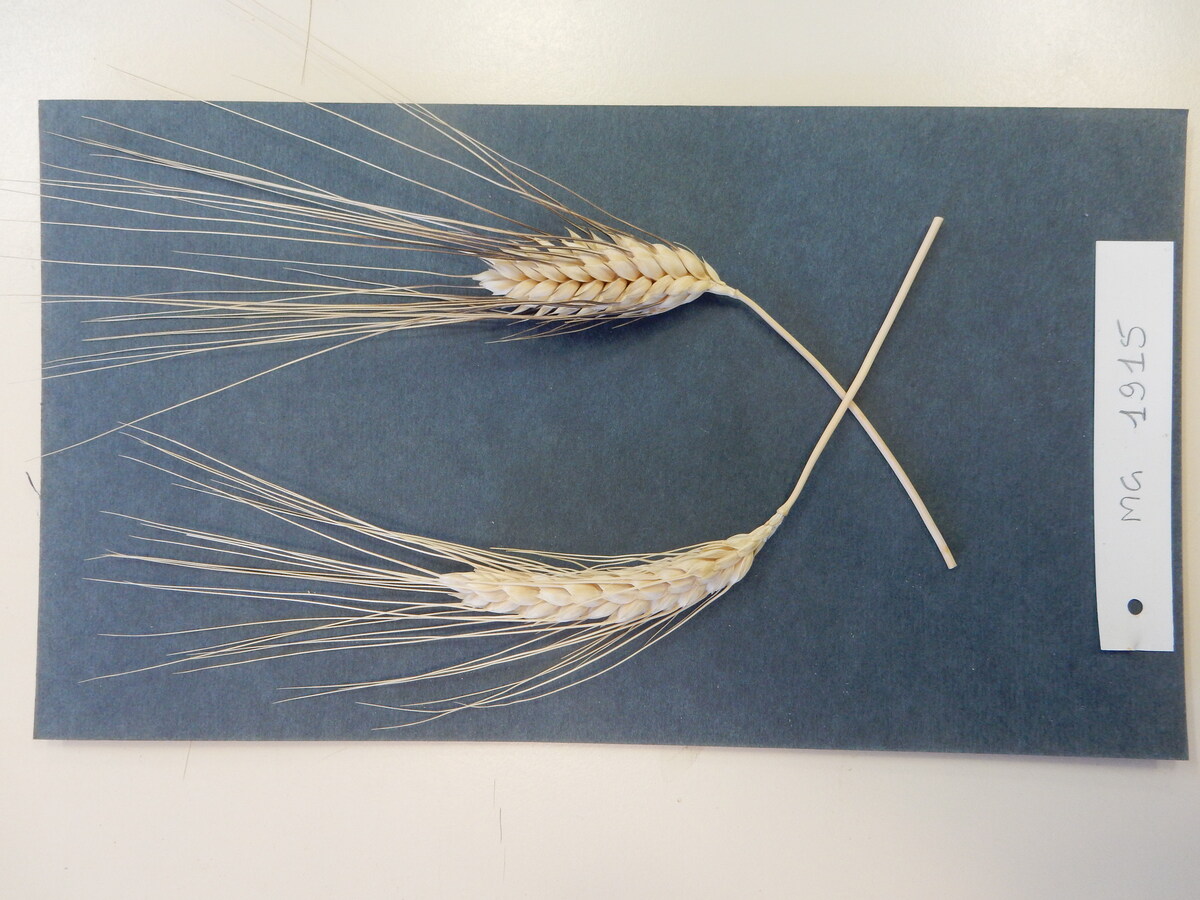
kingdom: Plantae
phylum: Tracheophyta
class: Liliopsida
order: Poales
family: Poaceae
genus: Triticum
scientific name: Triticum turgidum
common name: Wheat
